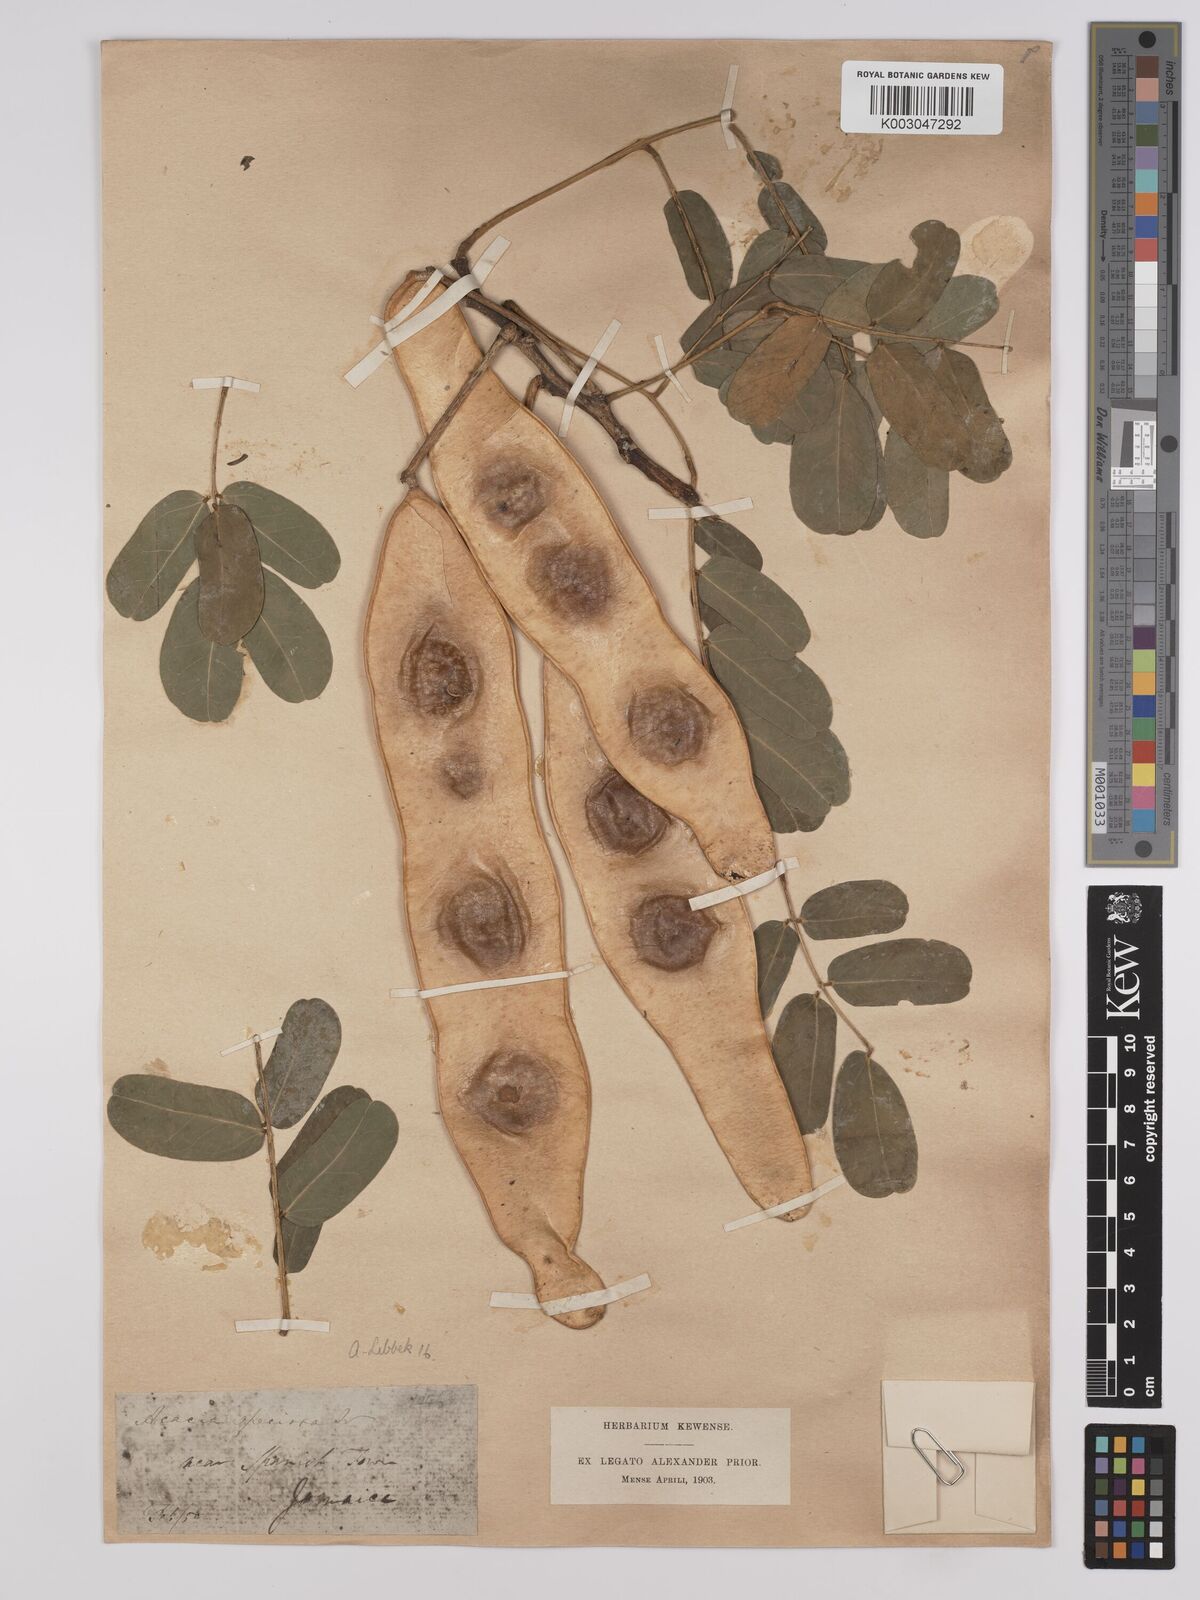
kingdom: Plantae
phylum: Tracheophyta
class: Magnoliopsida
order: Fabales
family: Fabaceae
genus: Albizia
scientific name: Albizia lebbeck
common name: Woman's tongue
